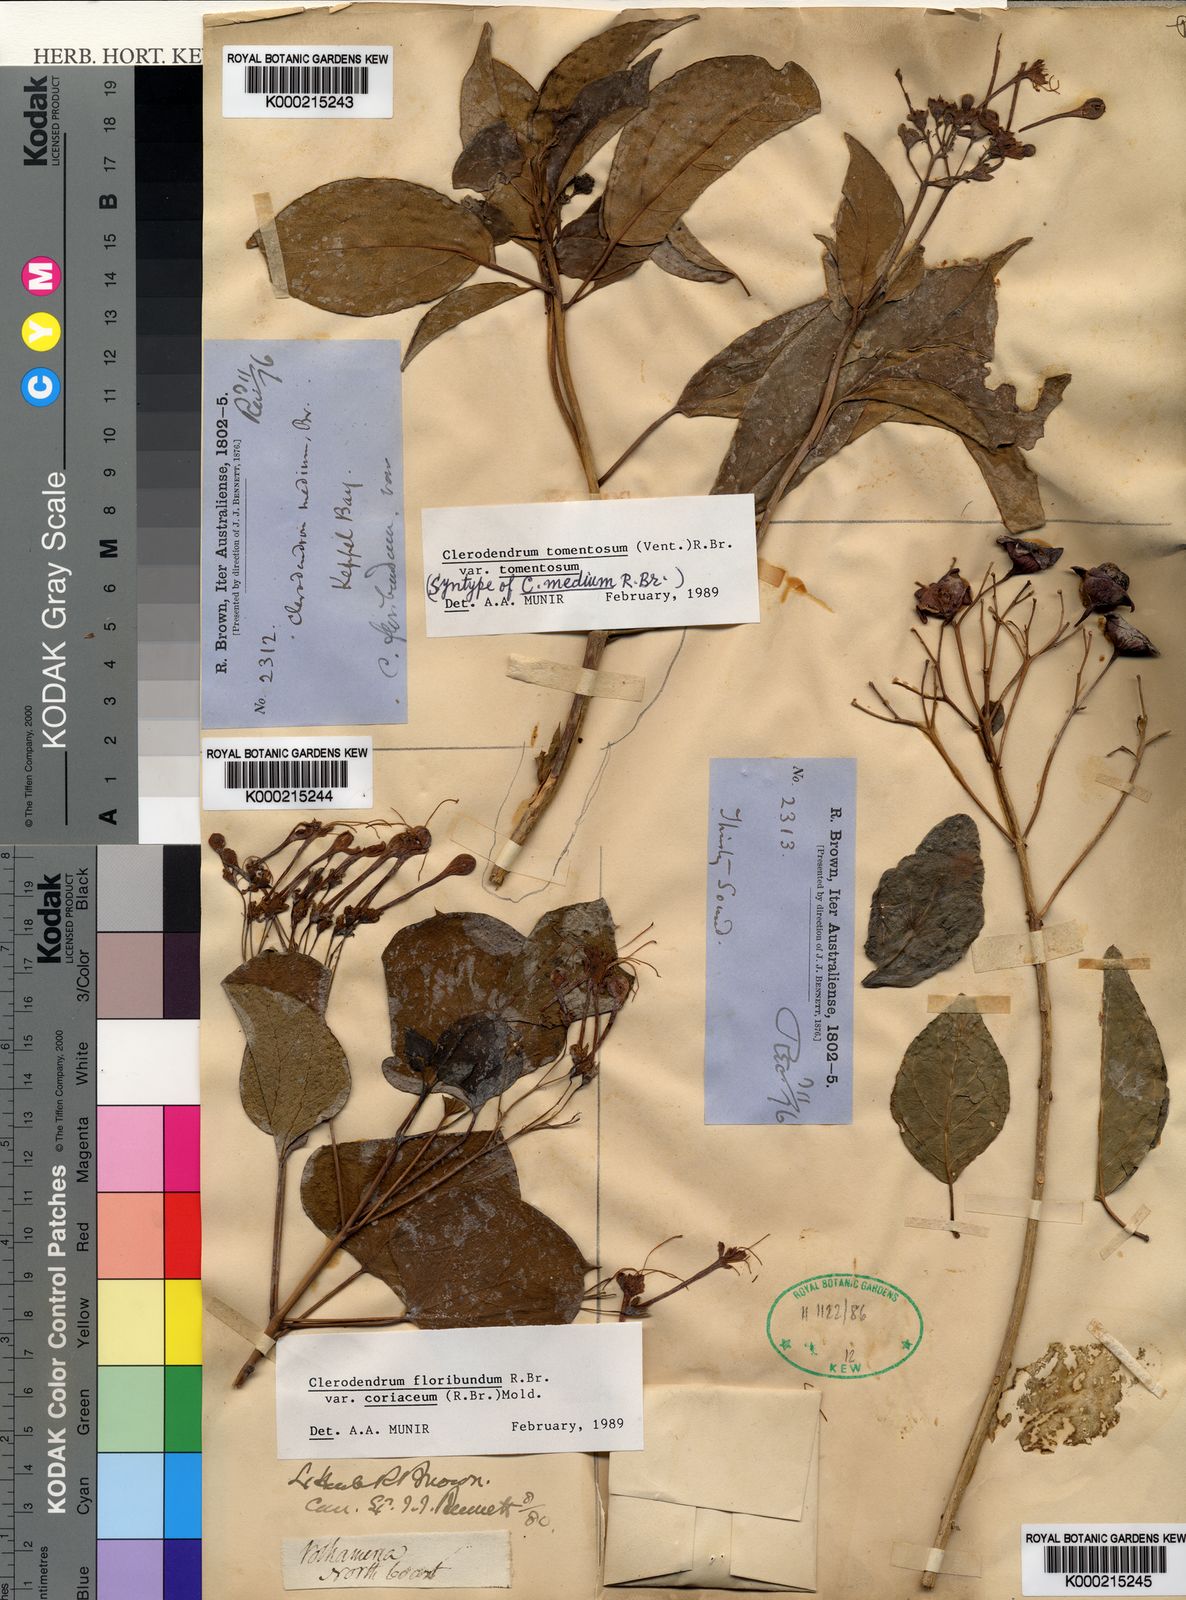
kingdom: Plantae
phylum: Tracheophyta
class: Magnoliopsida
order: Lamiales
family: Lamiaceae
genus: Clerodendrum
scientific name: Clerodendrum tomentosum
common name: Hairy clerodendrum
